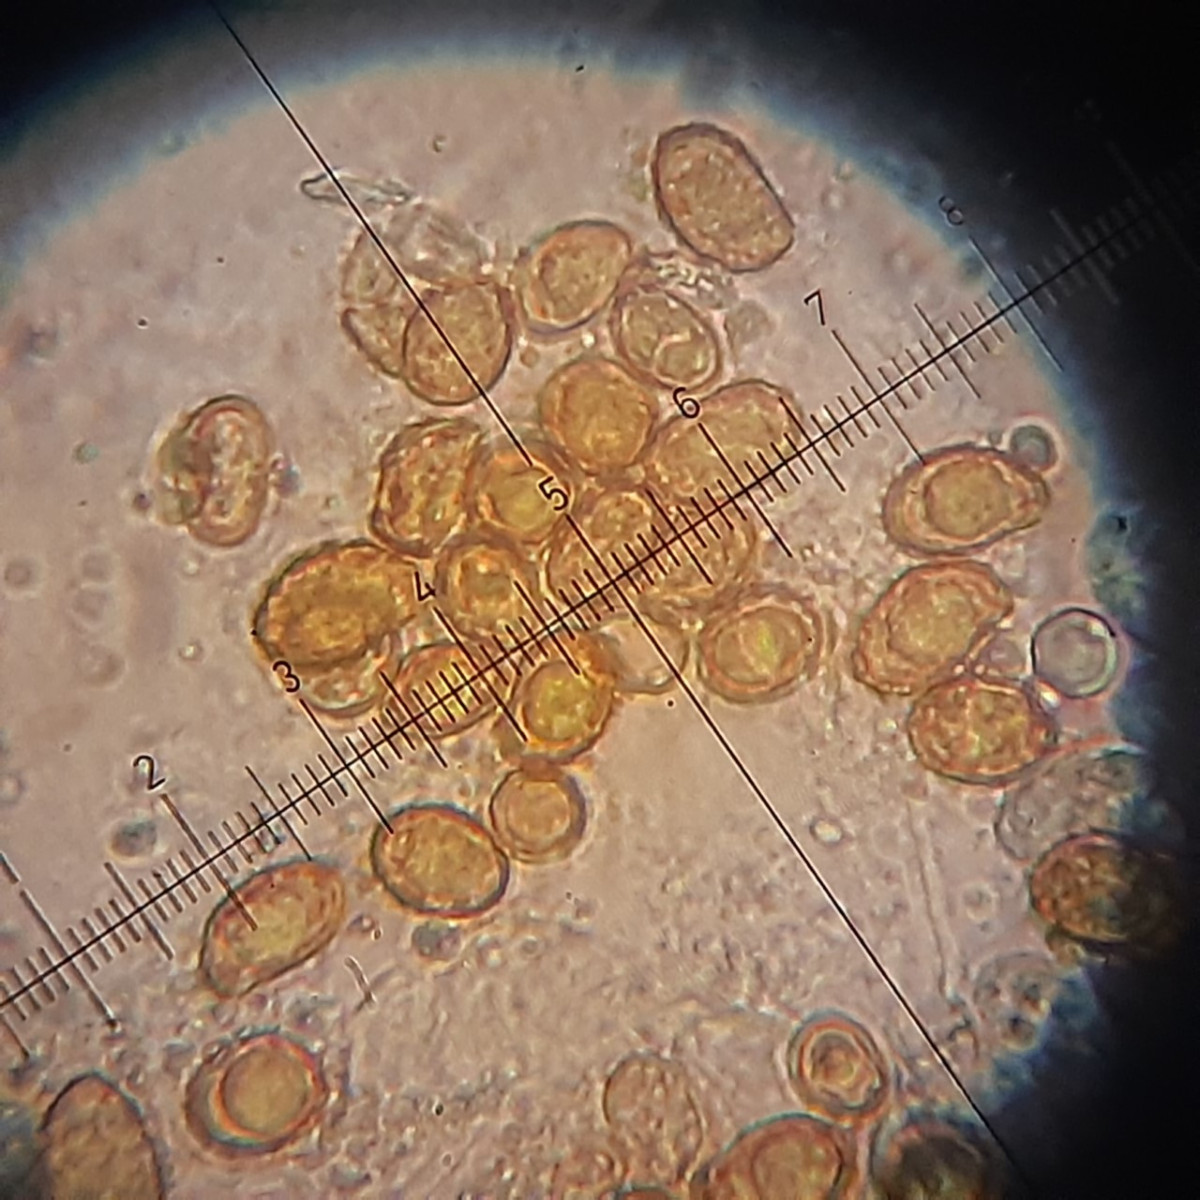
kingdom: Fungi
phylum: Basidiomycota
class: Agaricomycetes
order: Agaricales
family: Cortinariaceae
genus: Cortinarius
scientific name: Cortinarius
